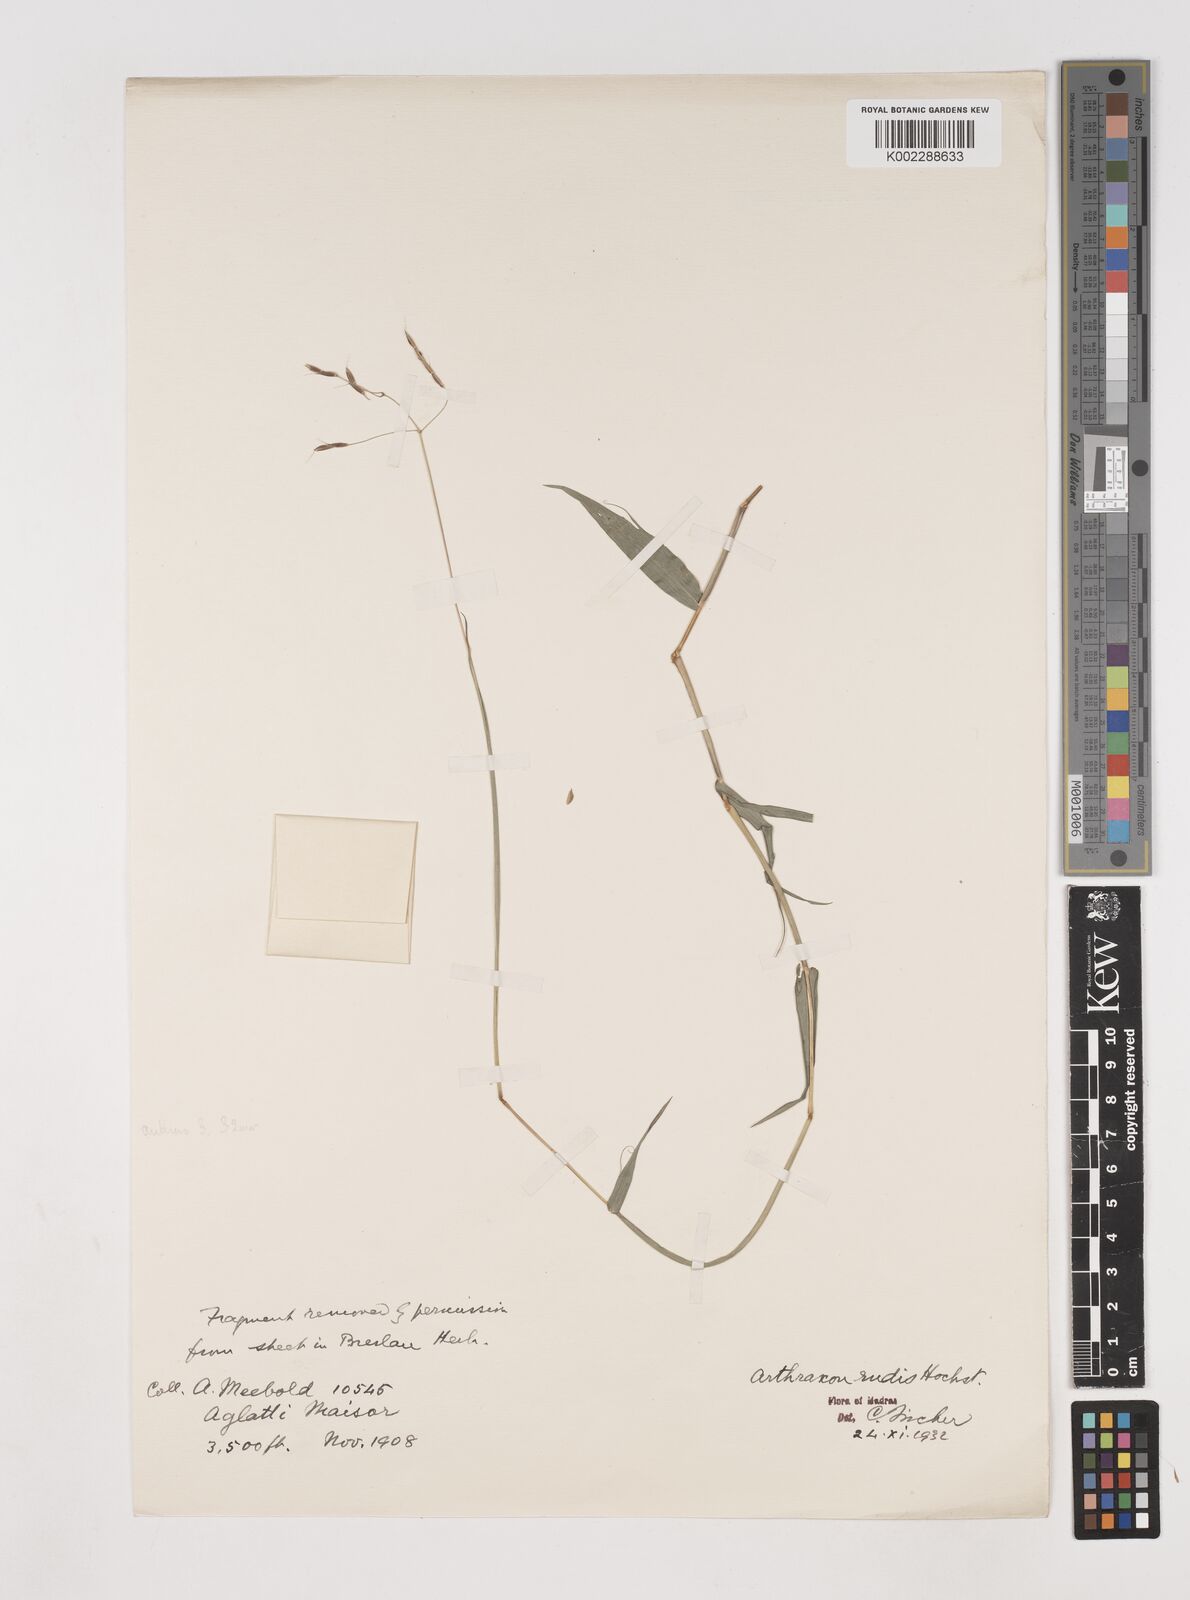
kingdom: Plantae
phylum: Tracheophyta
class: Liliopsida
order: Poales
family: Poaceae
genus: Arthraxon
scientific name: Arthraxon castratus
